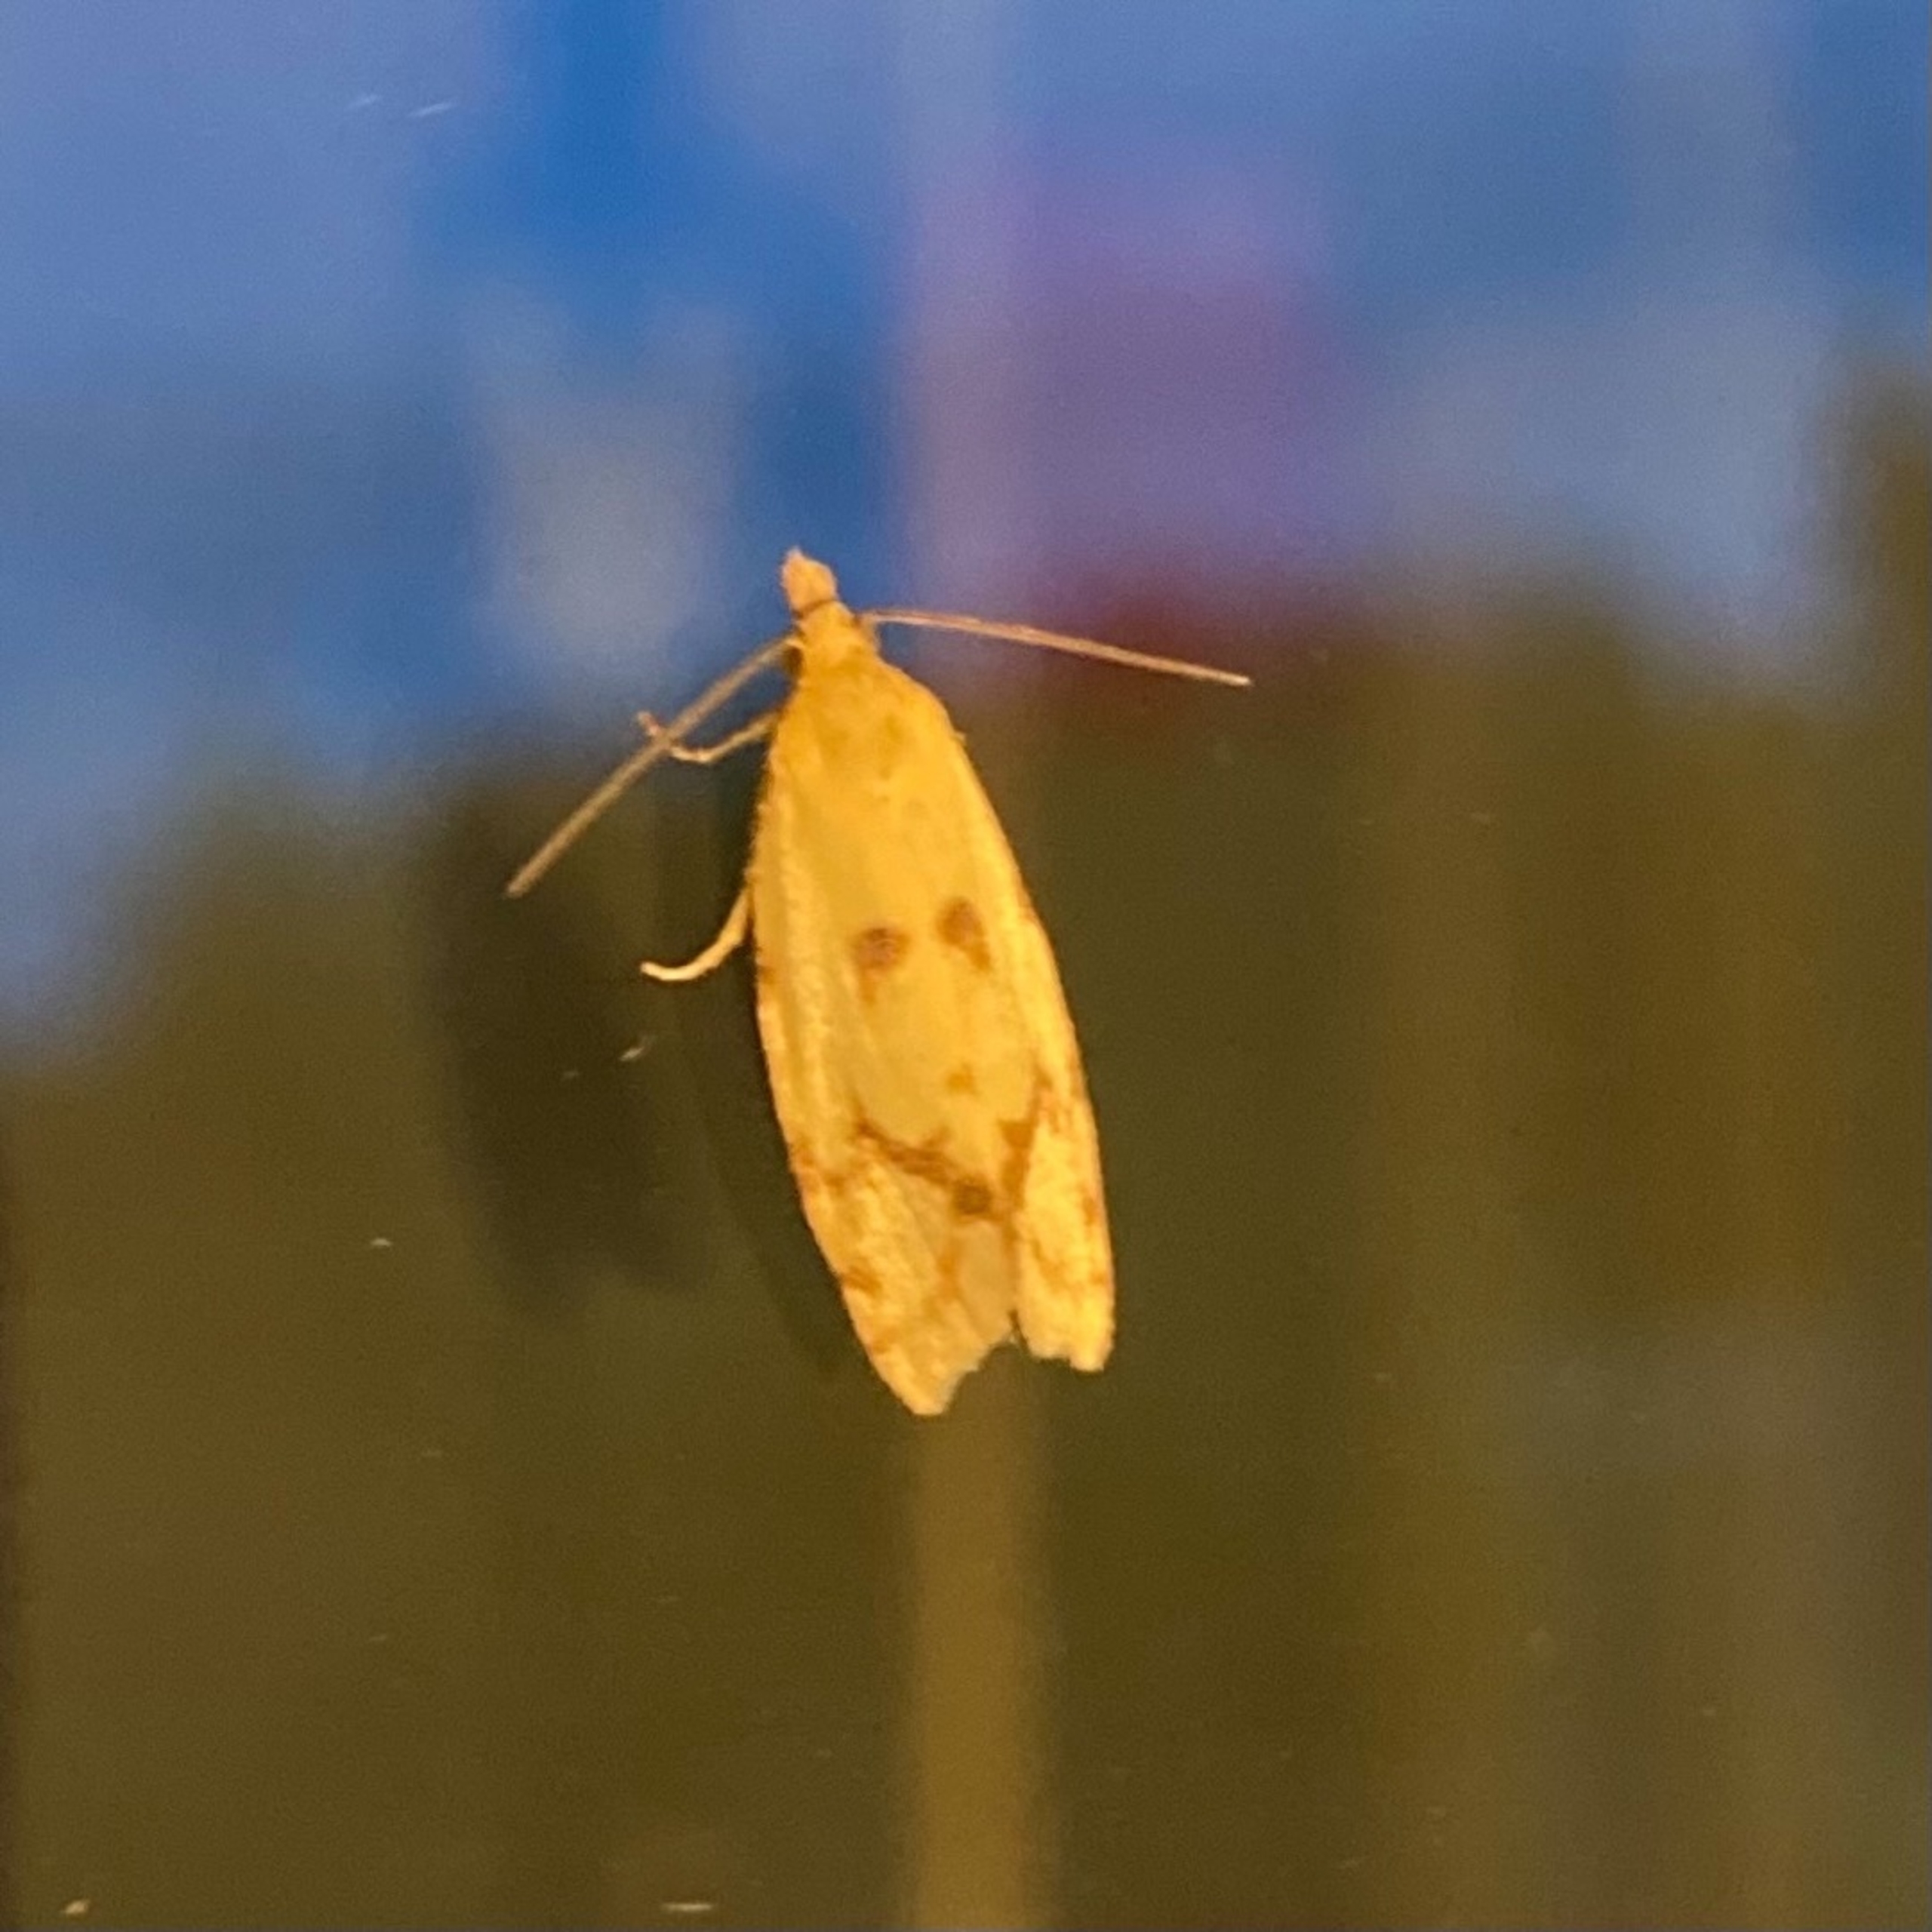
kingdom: Animalia
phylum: Arthropoda
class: Insecta
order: Lepidoptera
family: Tortricidae
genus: Agapeta
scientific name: Agapeta hamana
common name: Tidselgulvikler
